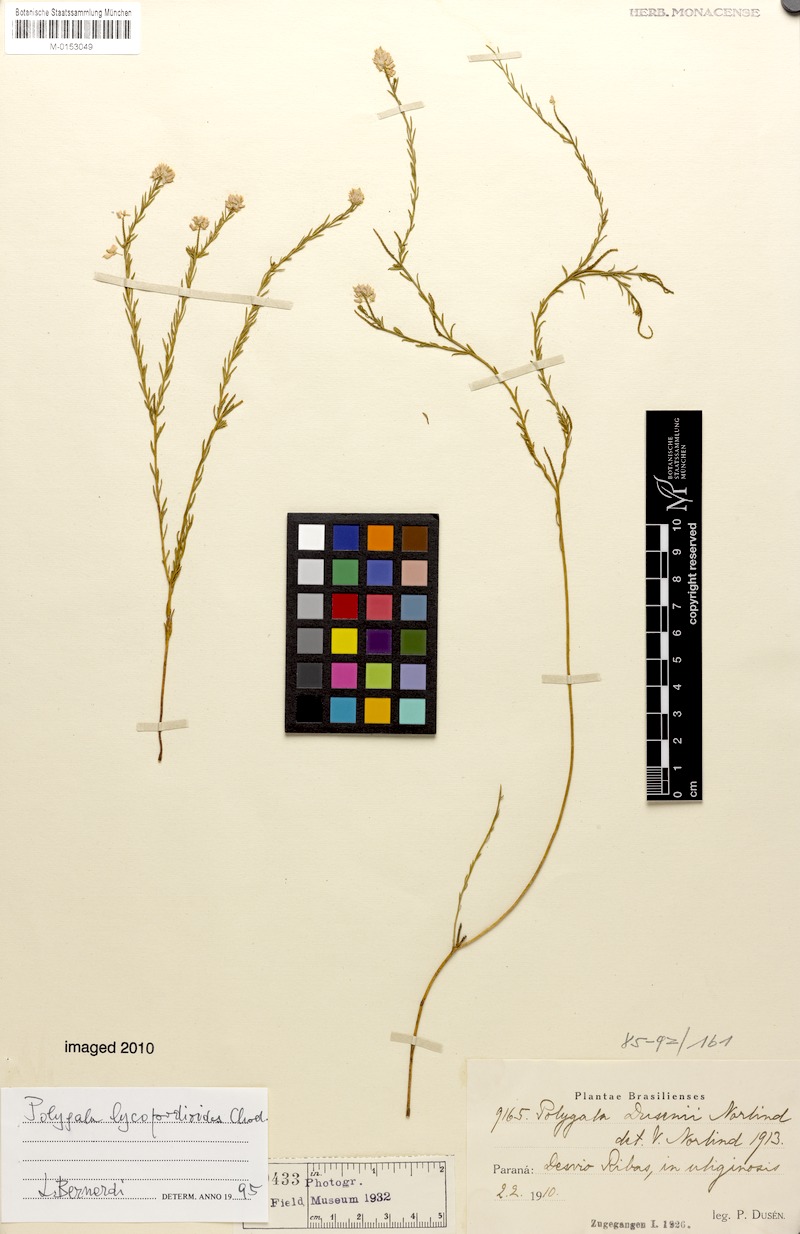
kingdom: Plantae
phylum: Tracheophyta
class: Magnoliopsida
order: Fabales
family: Polygalaceae
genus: Polygala
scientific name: Polygala lycopodioides
